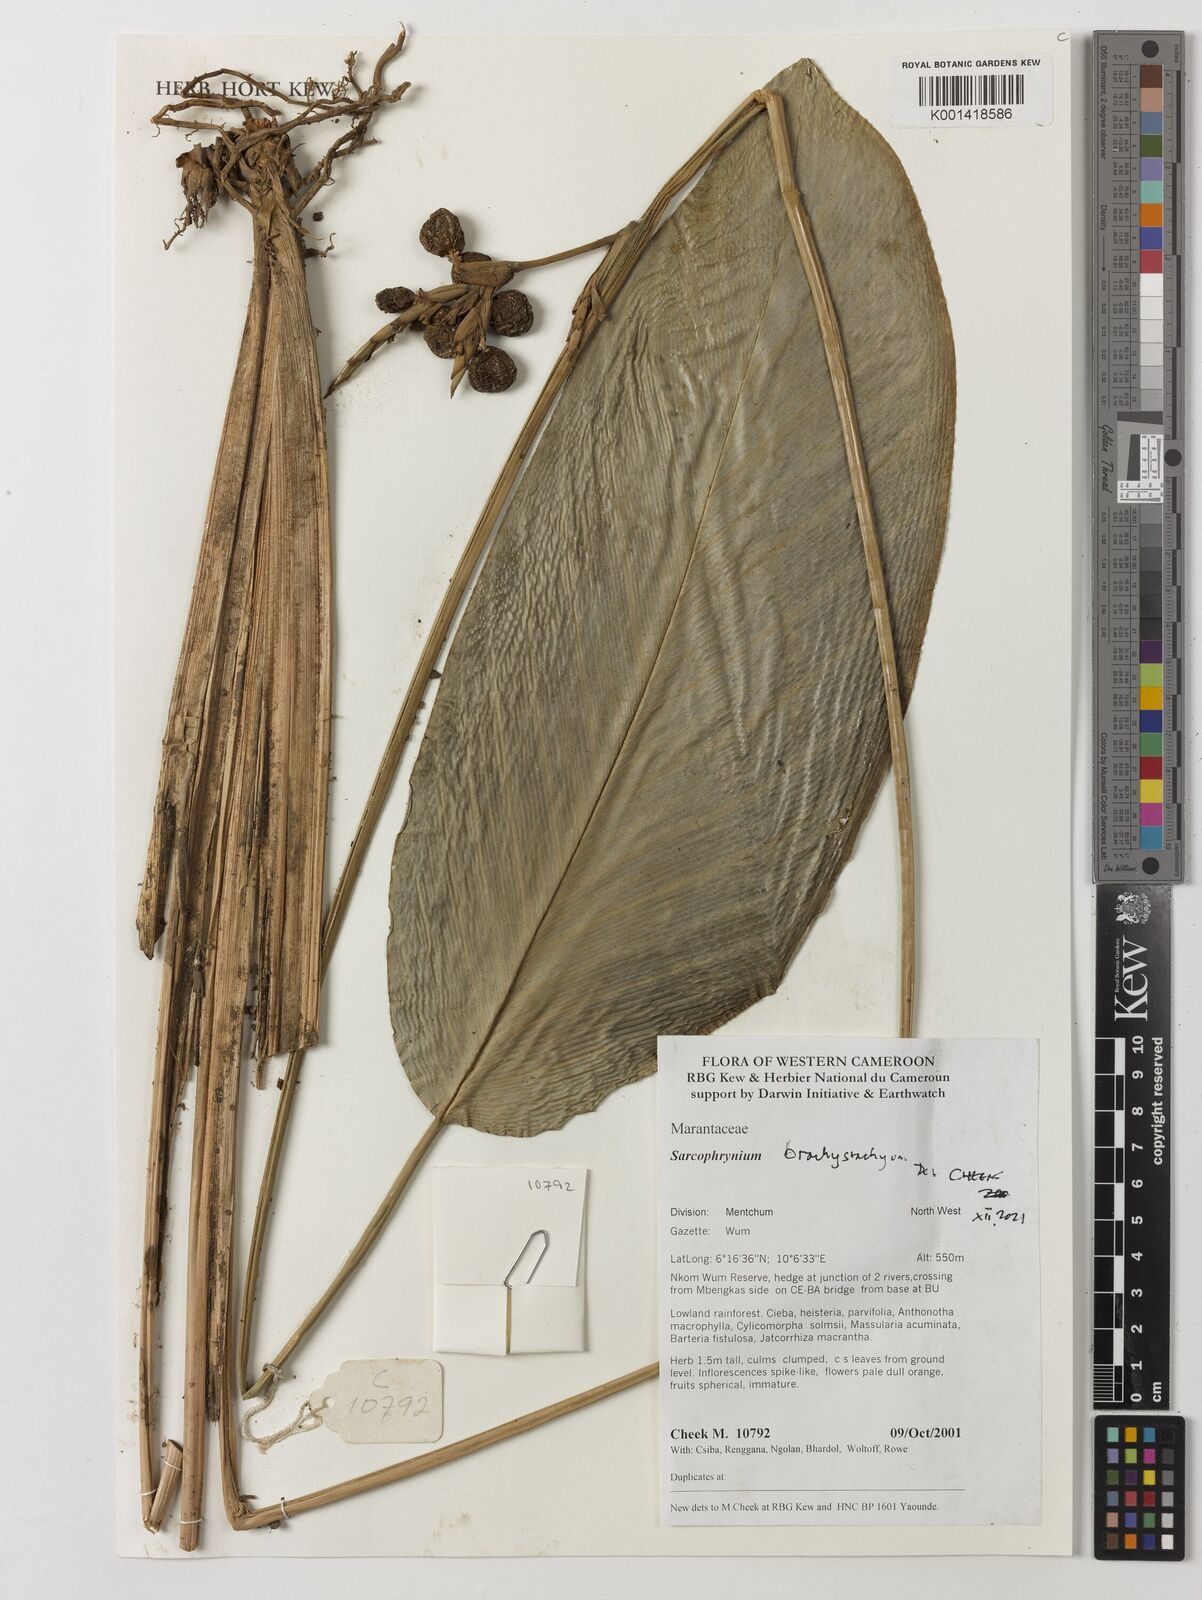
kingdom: Plantae
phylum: Tracheophyta
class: Liliopsida
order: Zingiberales
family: Marantaceae
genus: Sarcophrynium
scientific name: Sarcophrynium brachystachyum
